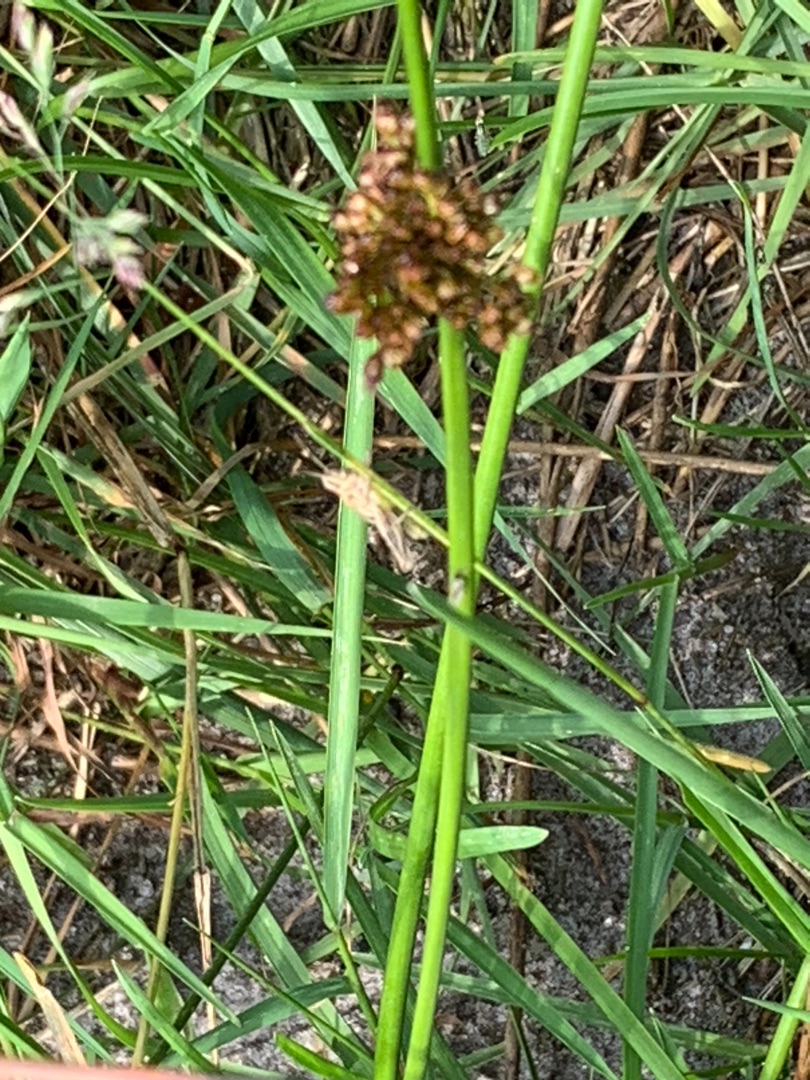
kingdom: Plantae
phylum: Tracheophyta
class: Liliopsida
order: Poales
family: Juncaceae
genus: Juncus
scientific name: Juncus conglomeratus
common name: Knop-siv
